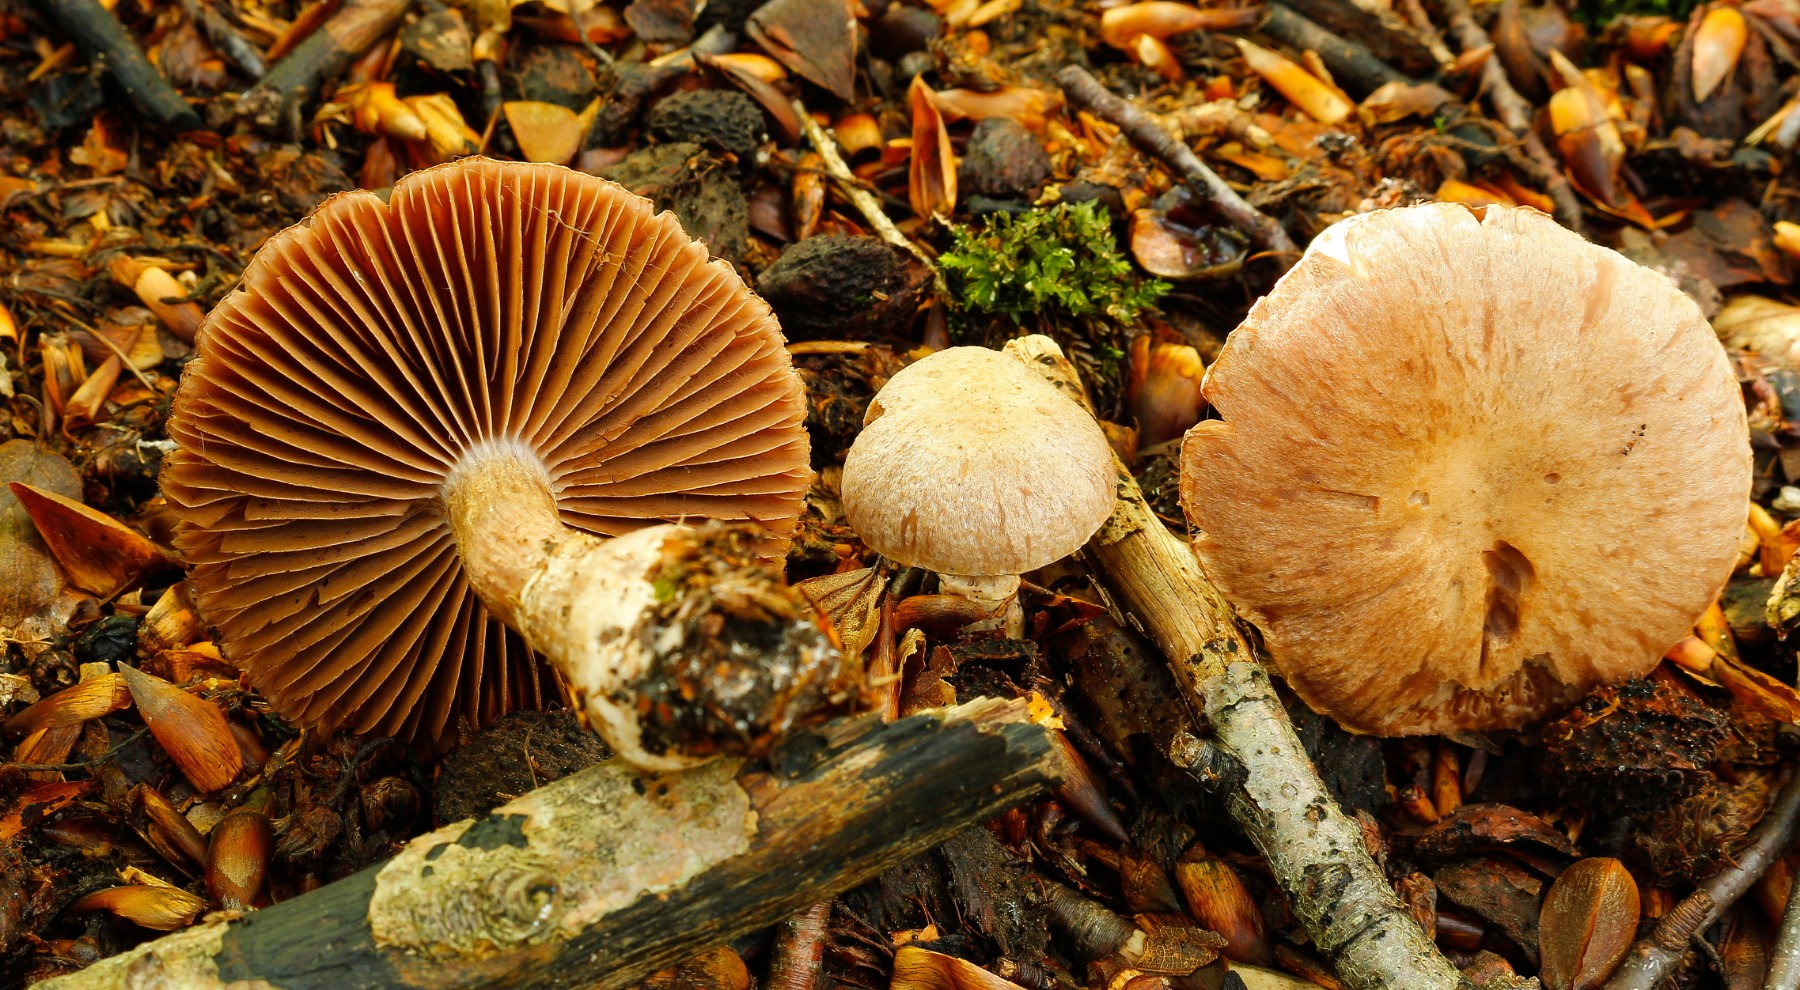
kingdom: Fungi
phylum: Basidiomycota
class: Agaricomycetes
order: Agaricales
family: Cortinariaceae
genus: Cortinarius
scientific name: Cortinarius
